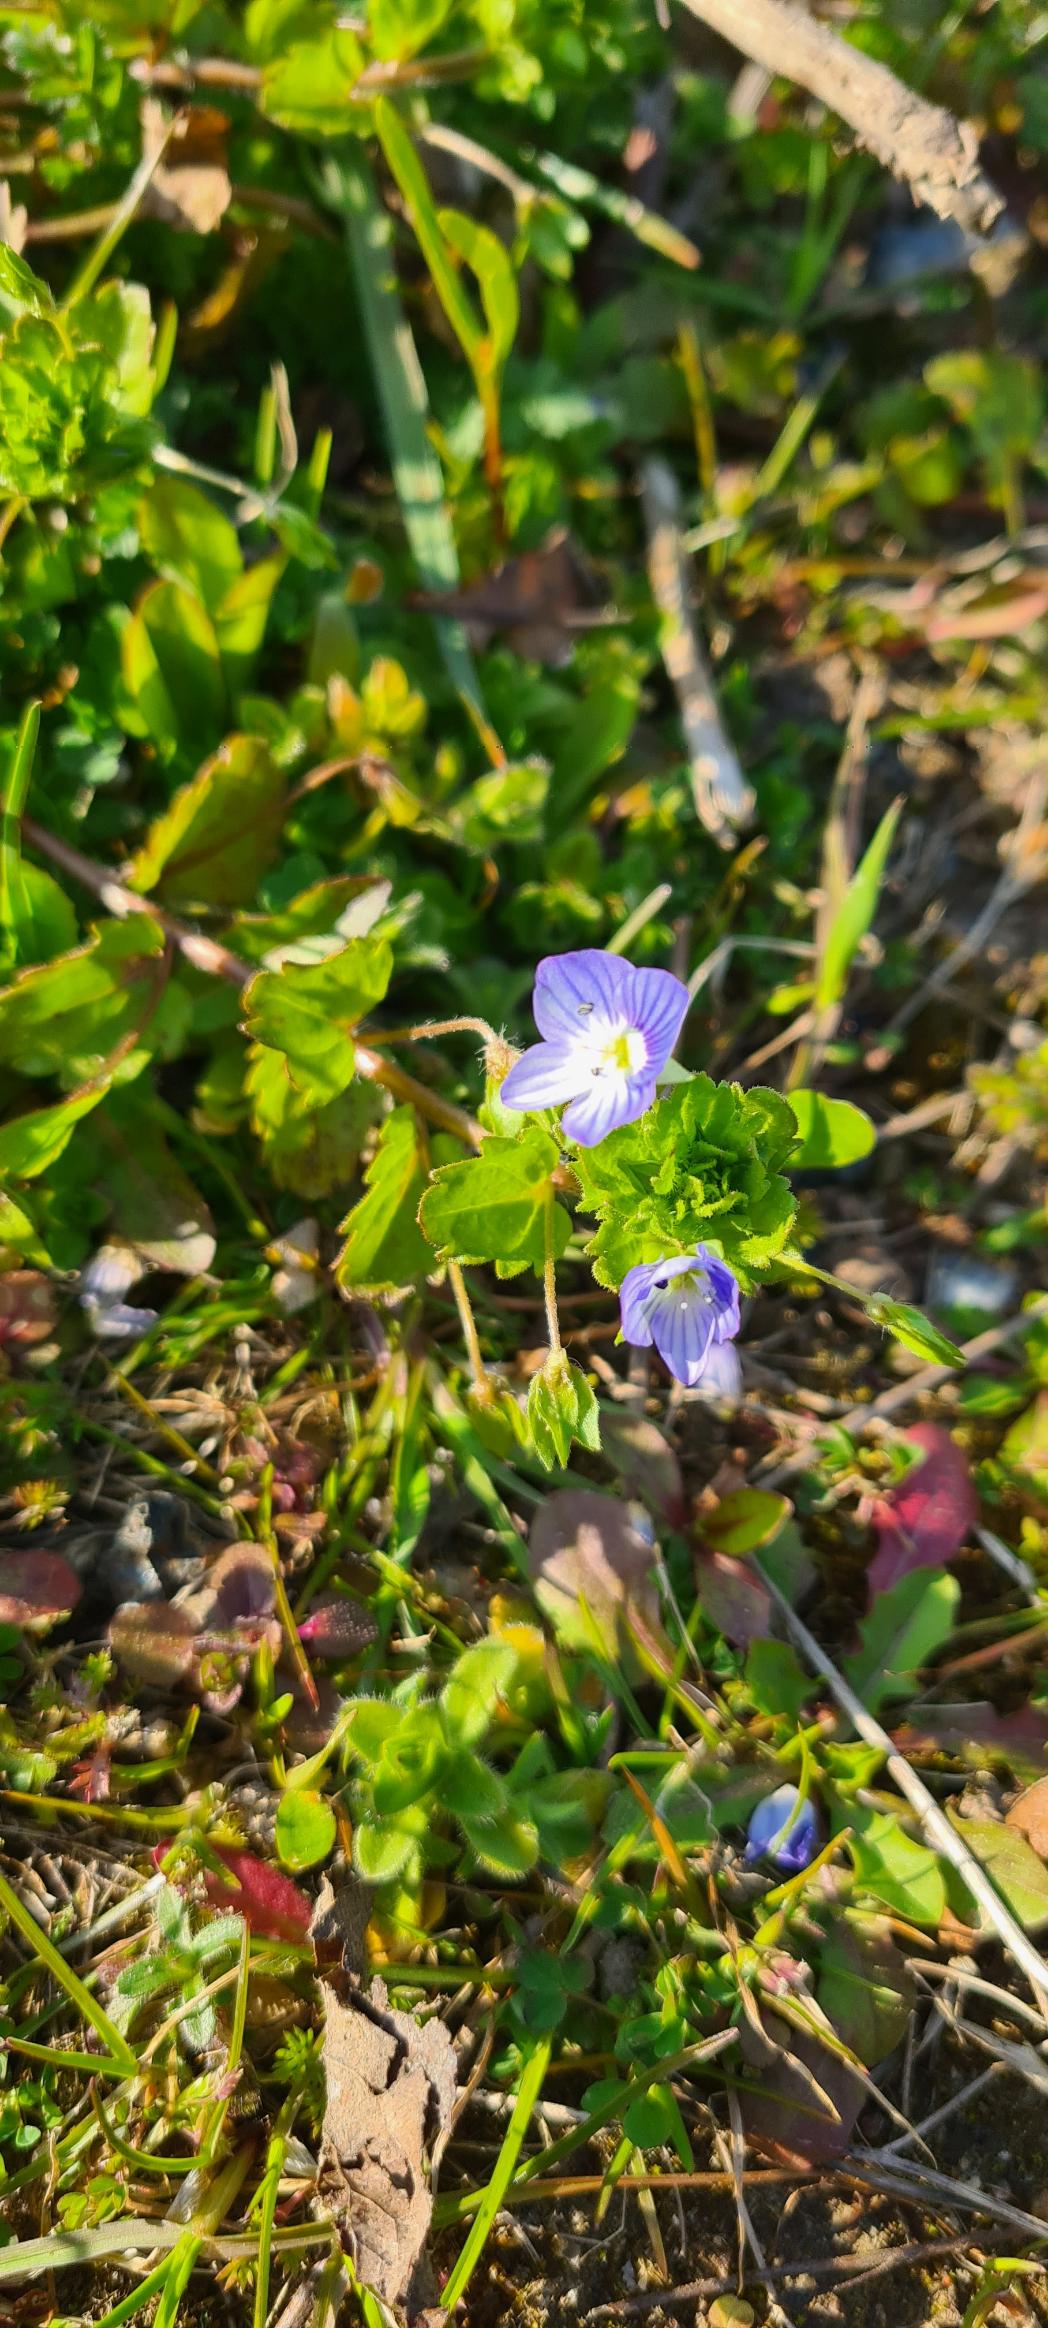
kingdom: Plantae
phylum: Tracheophyta
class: Magnoliopsida
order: Lamiales
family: Plantaginaceae
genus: Veronica
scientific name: Veronica persica
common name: Storkronet ærenpris
